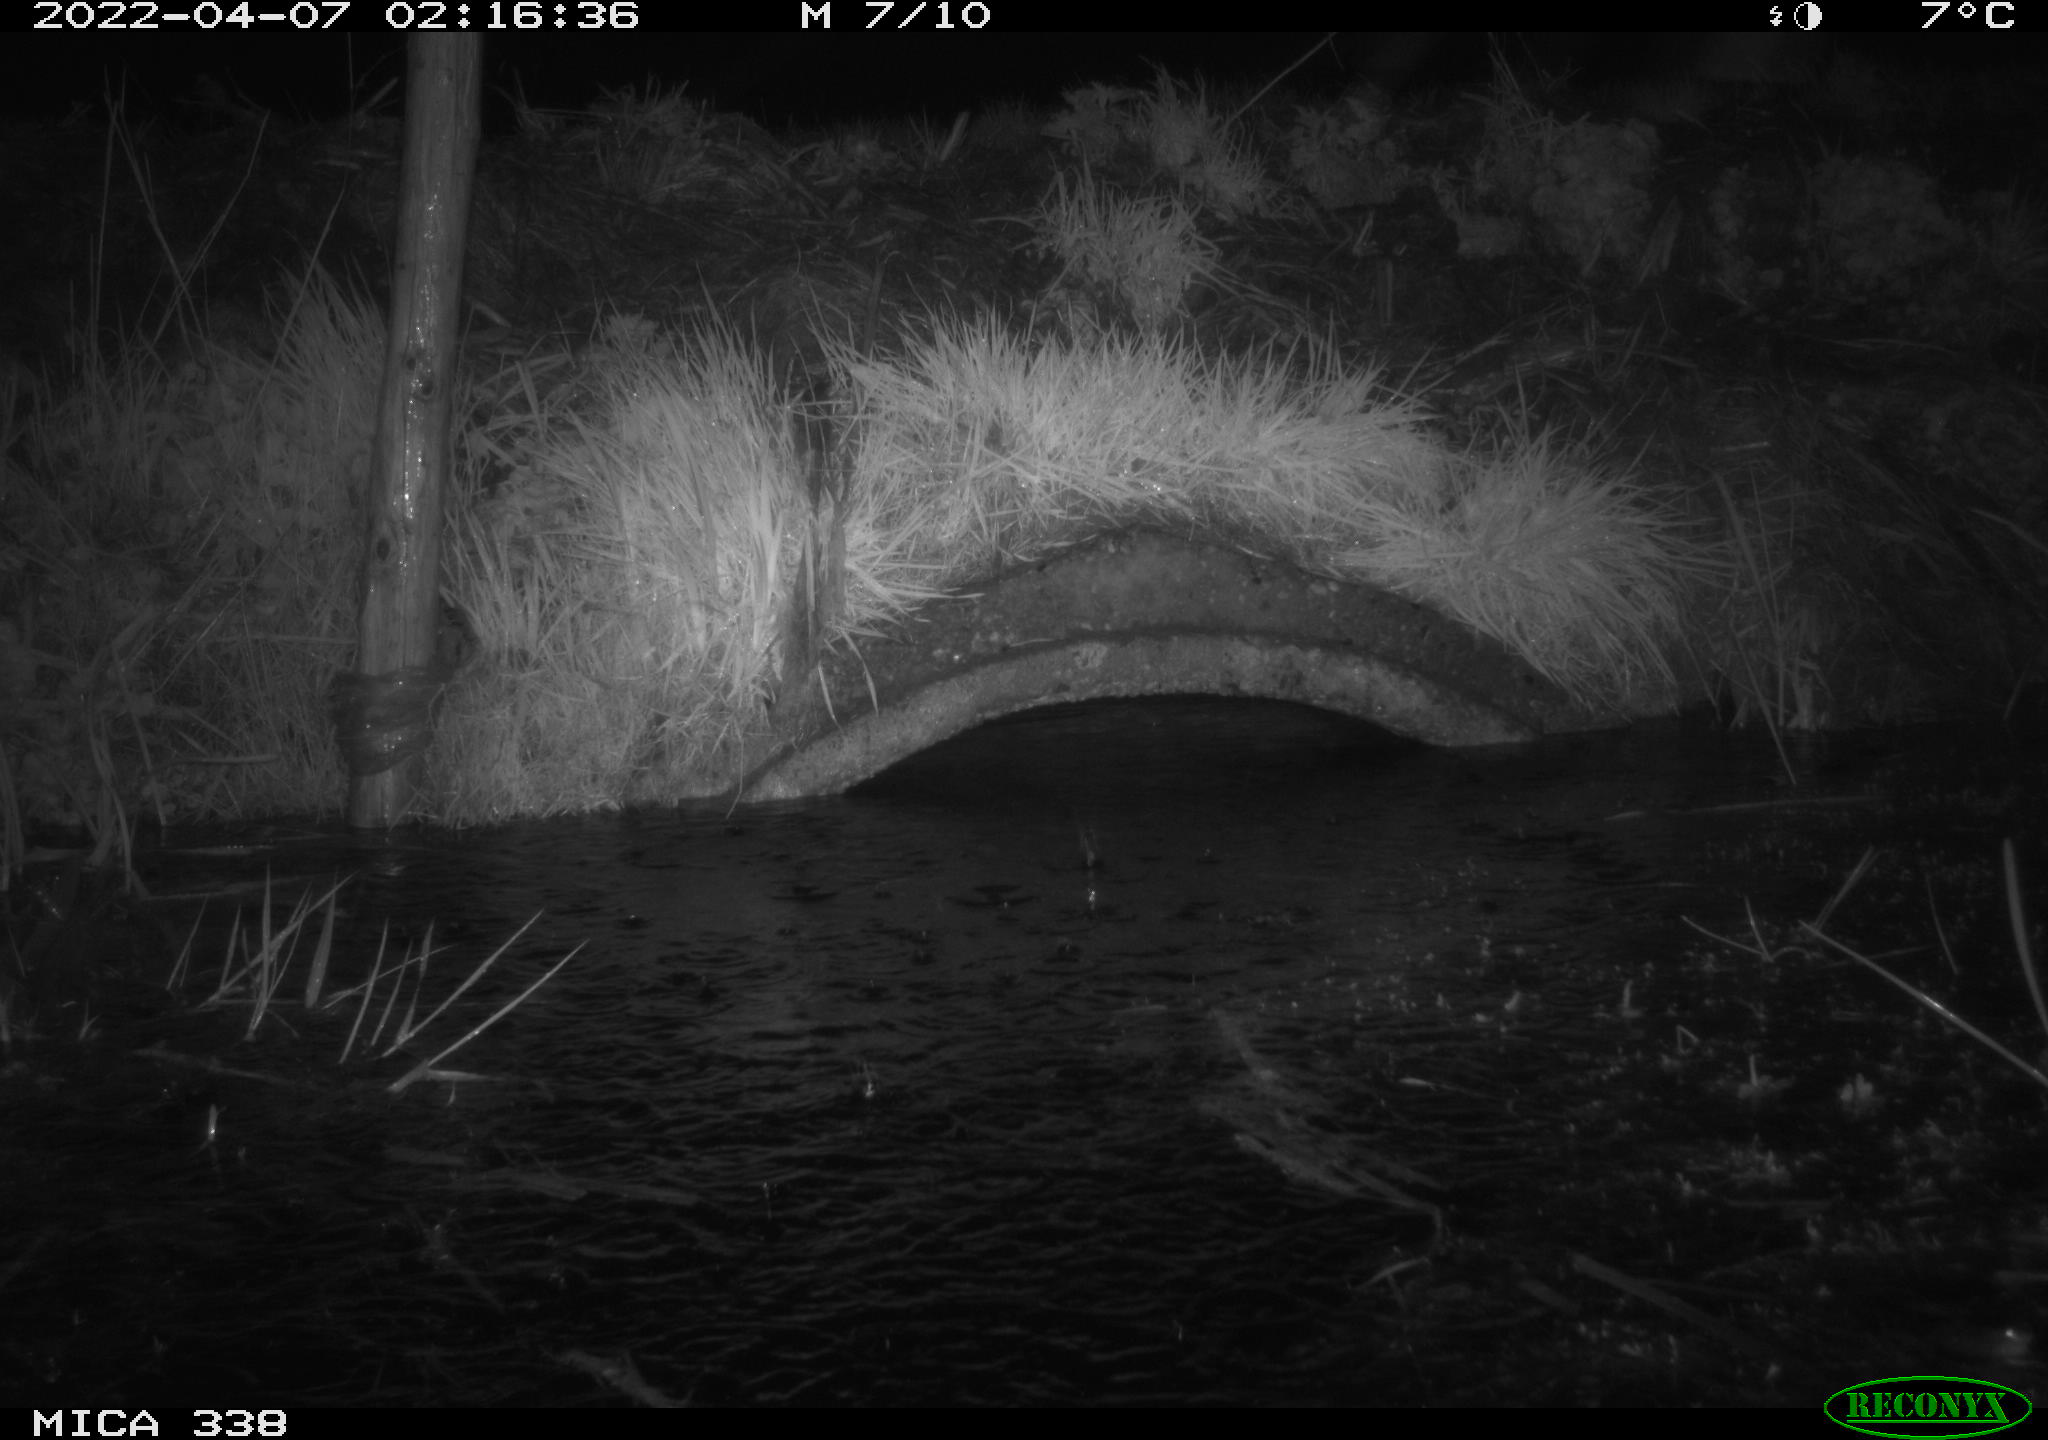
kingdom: Animalia
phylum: Chordata
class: Mammalia
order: Rodentia
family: Muridae
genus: Rattus
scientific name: Rattus norvegicus
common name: Brown rat
